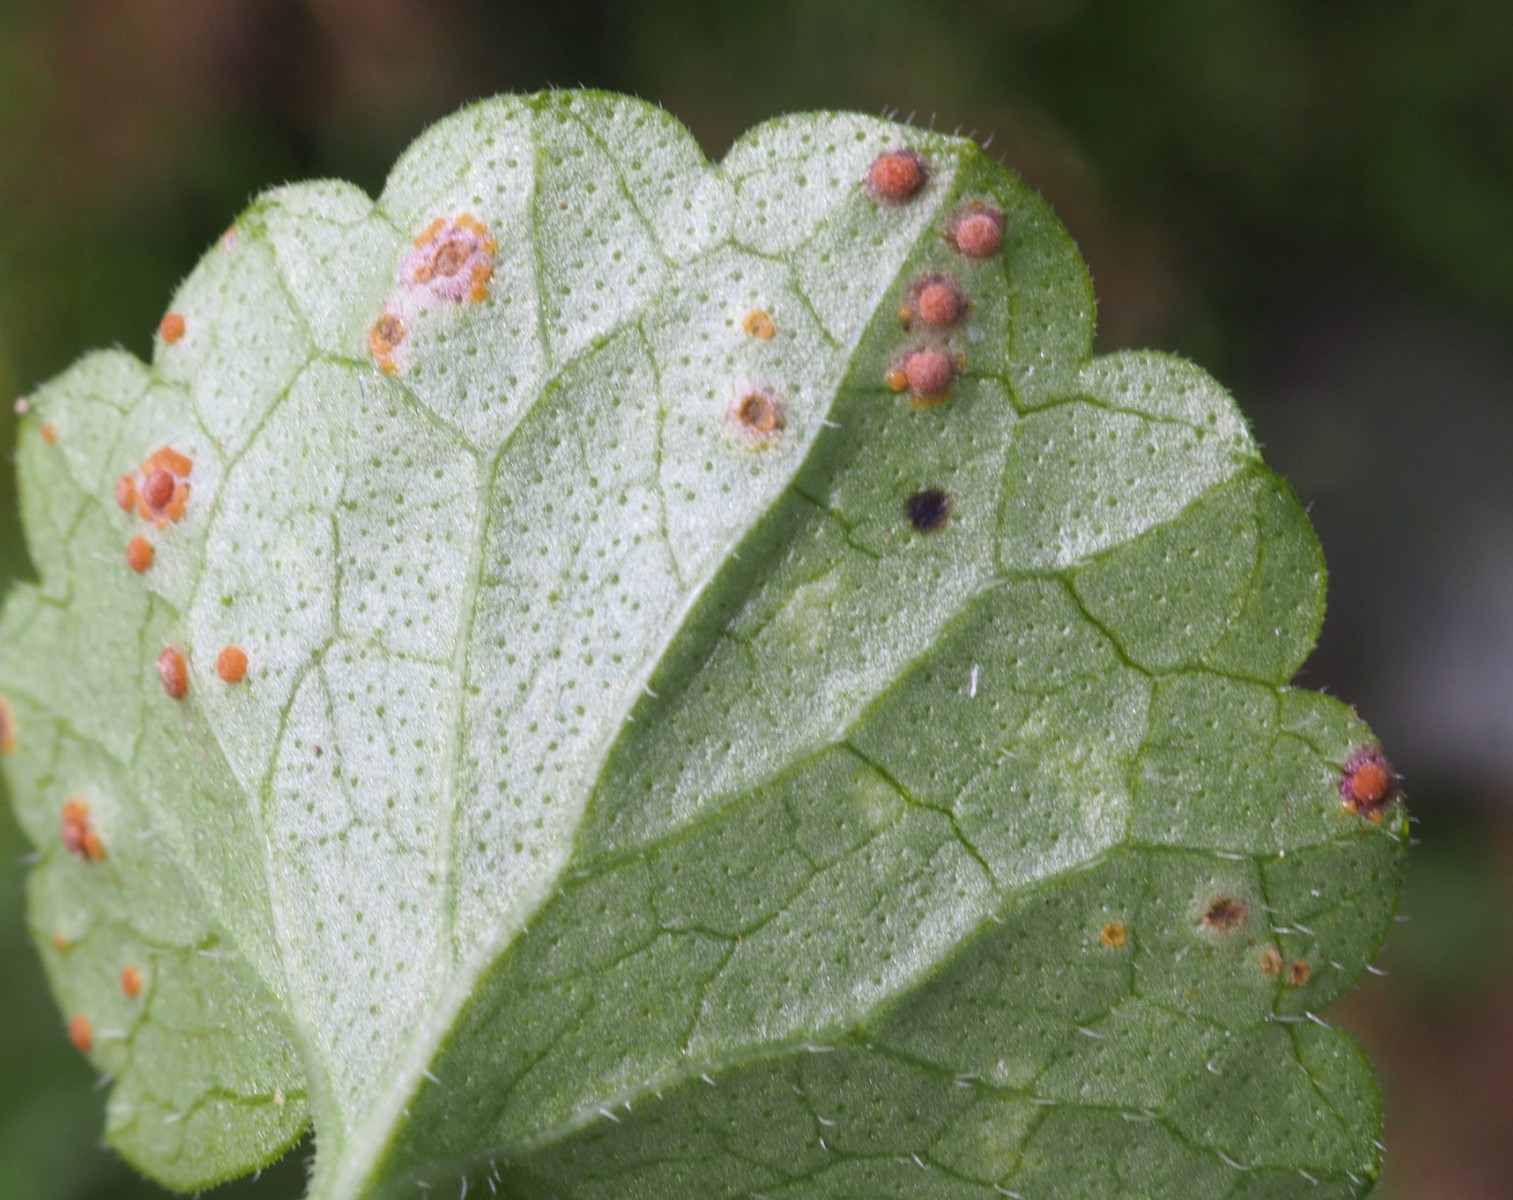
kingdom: Fungi
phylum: Basidiomycota
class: Pucciniomycetes
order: Pucciniales
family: Pucciniaceae
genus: Puccinia
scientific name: Puccinia glechomatis
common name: Ground ivy rust
